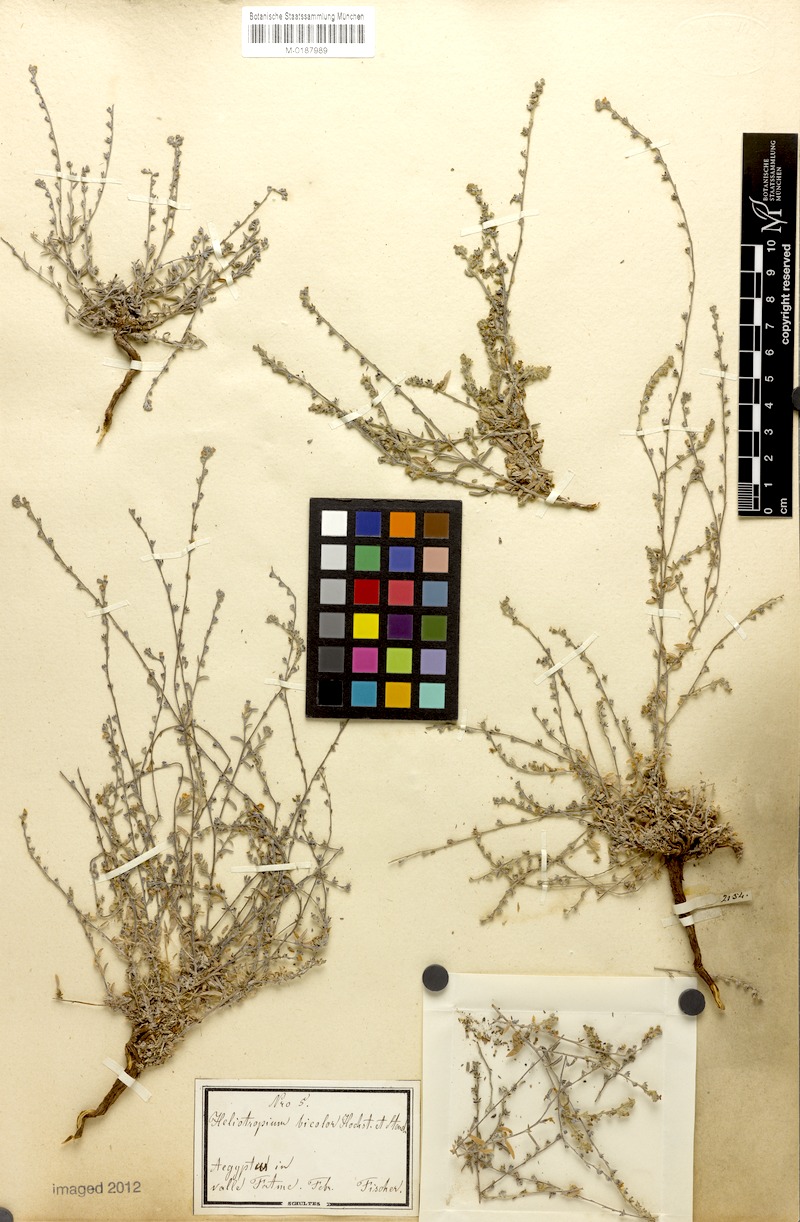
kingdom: Plantae
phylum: Tracheophyta
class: Magnoliopsida
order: Boraginales
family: Heliotropiaceae
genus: Euploca
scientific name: Euploca strigosa
